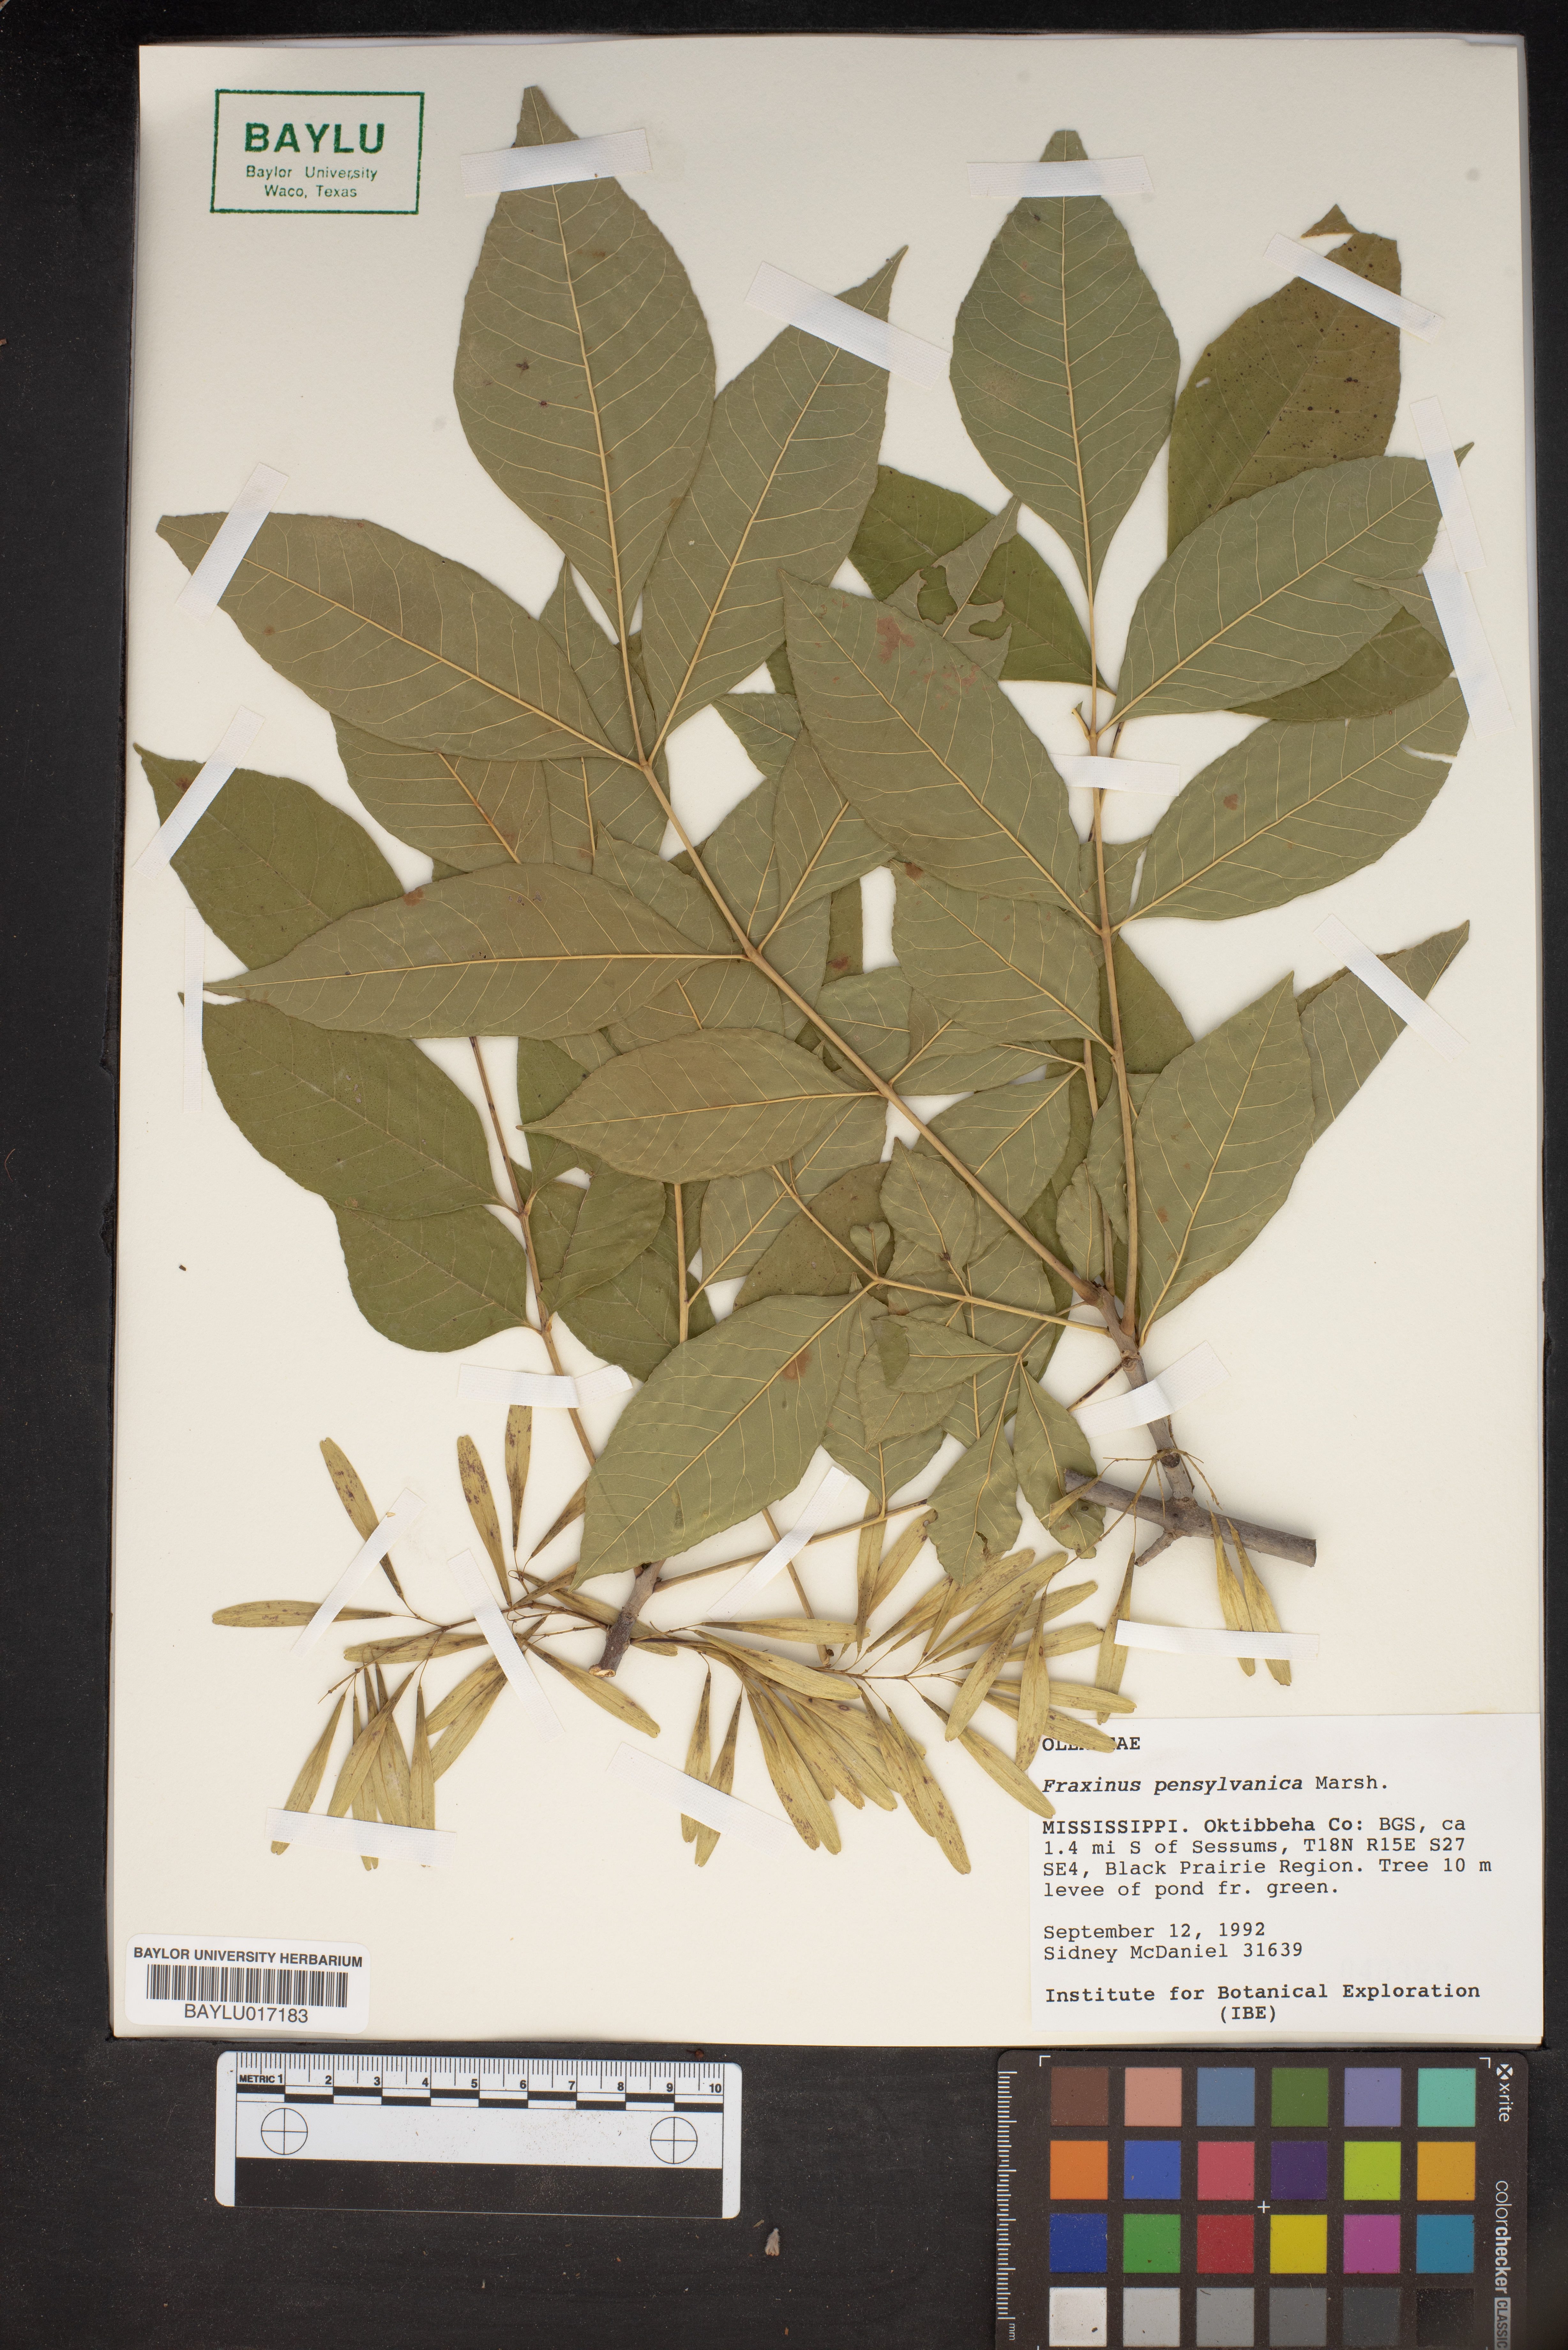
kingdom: Plantae
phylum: Tracheophyta
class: Magnoliopsida
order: Lamiales
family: Oleaceae
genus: Fraxinus
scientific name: Fraxinus pennsylvanica
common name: Green ash
